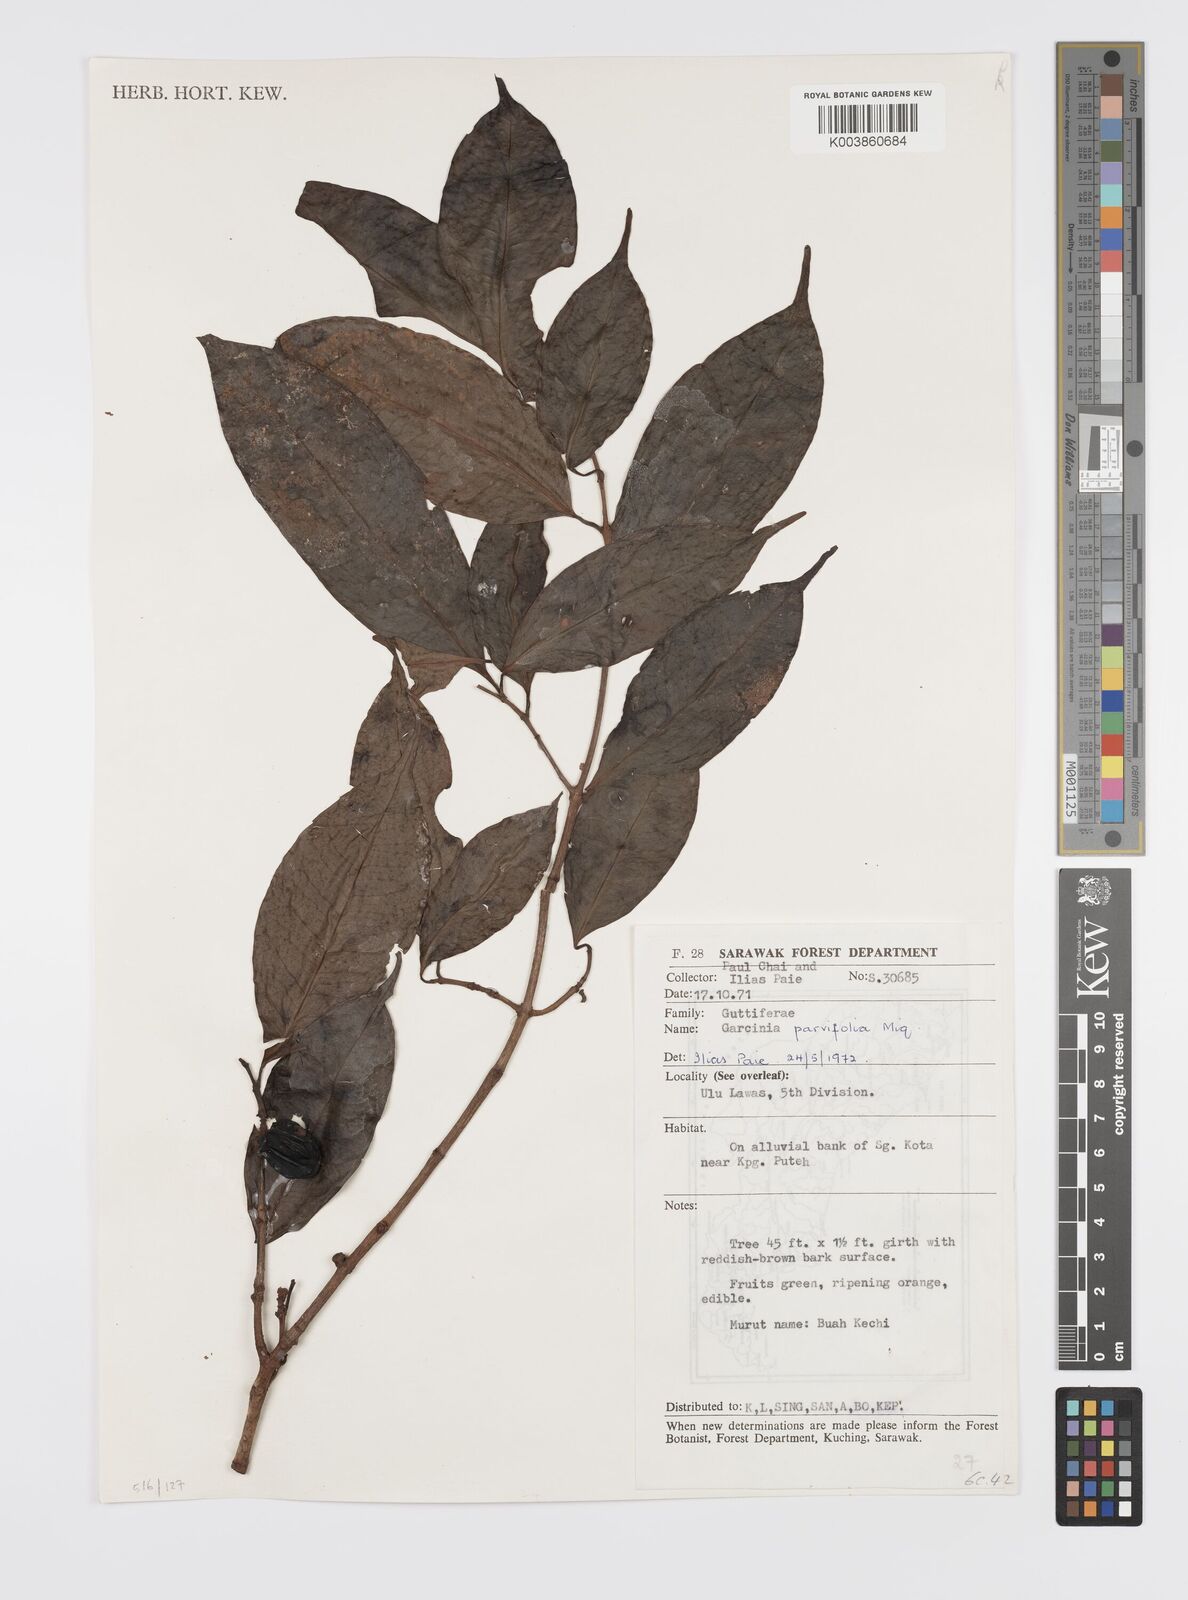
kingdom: Plantae
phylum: Tracheophyta
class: Magnoliopsida
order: Malpighiales
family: Clusiaceae
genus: Garcinia
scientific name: Garcinia parvifolia
